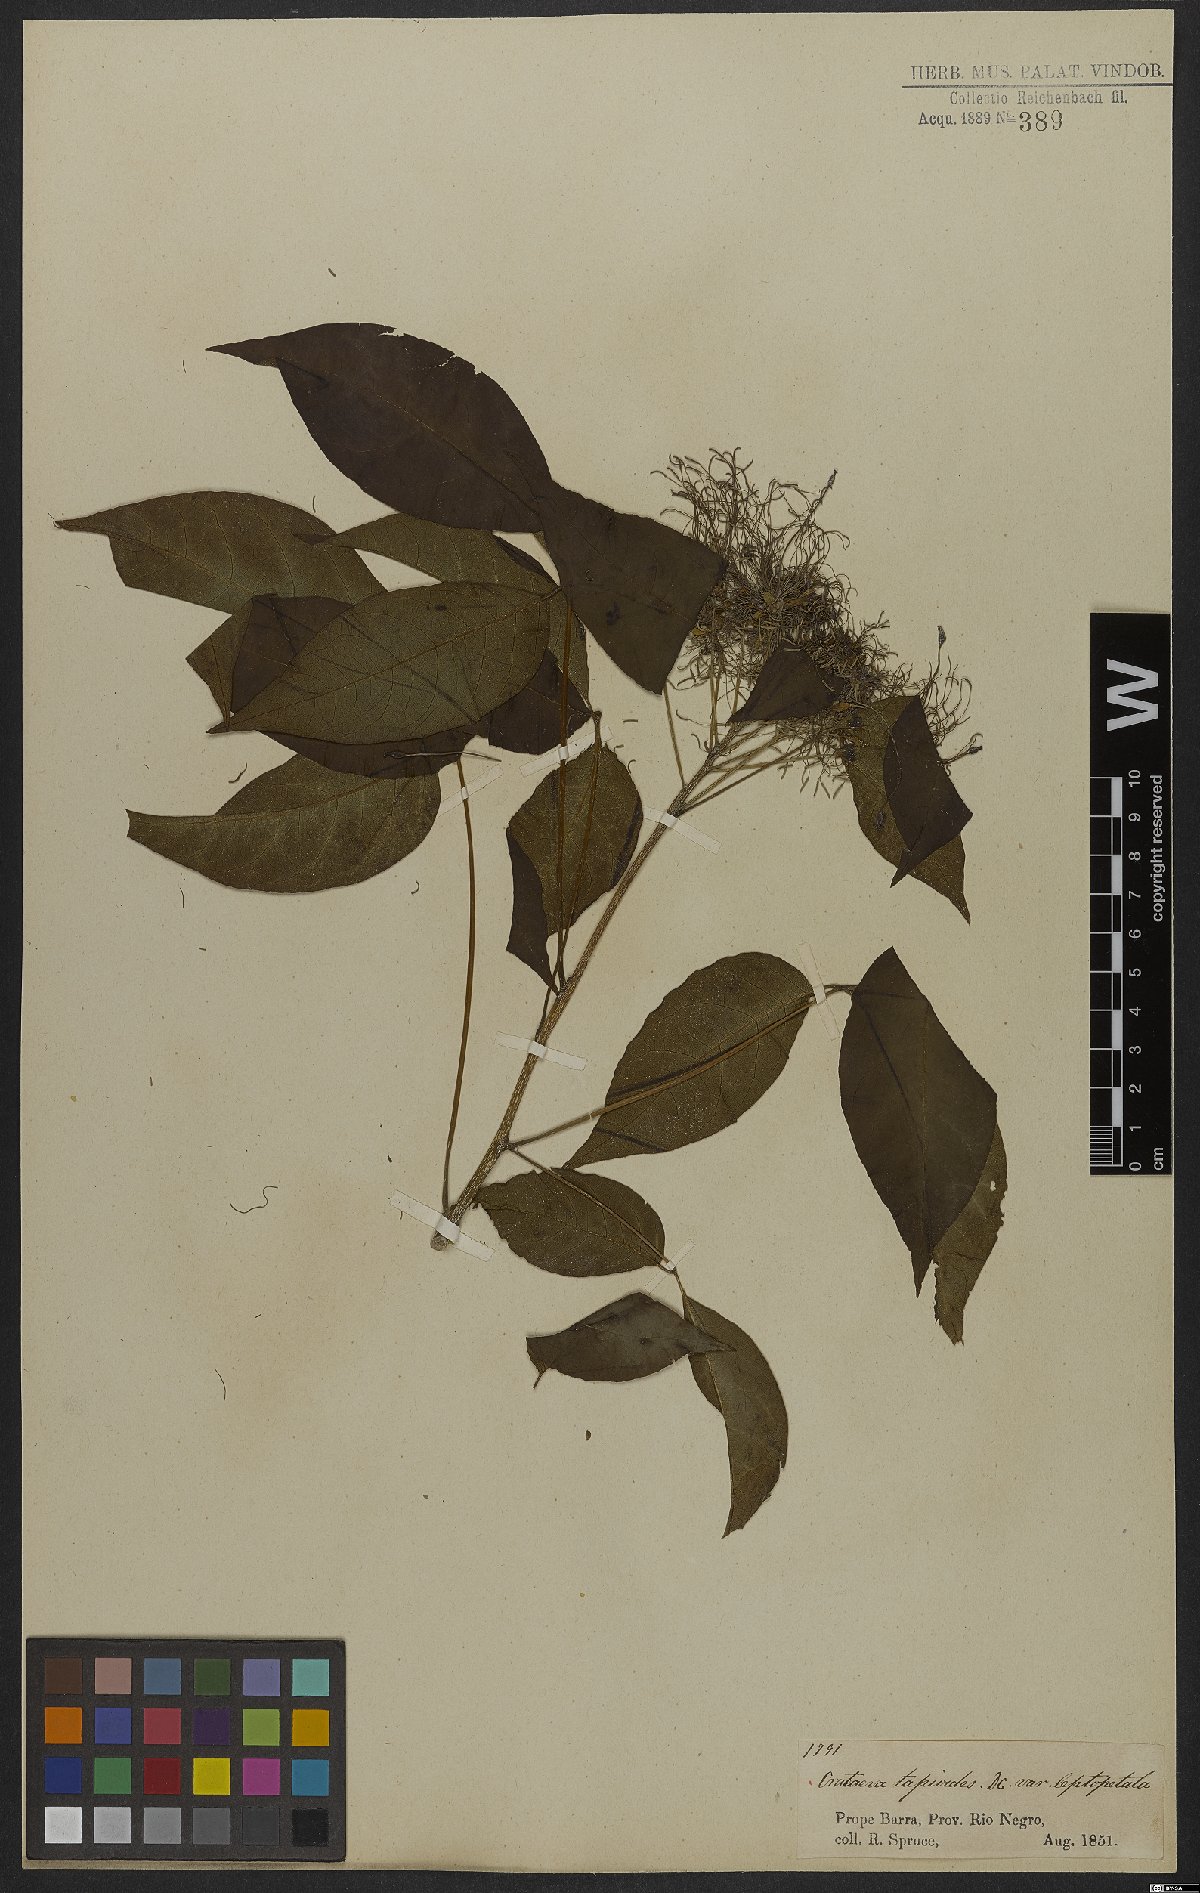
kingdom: Plantae
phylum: Tracheophyta
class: Magnoliopsida
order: Brassicales
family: Capparaceae
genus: Crateva
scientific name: Crateva tapia
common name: Garlic-pear
